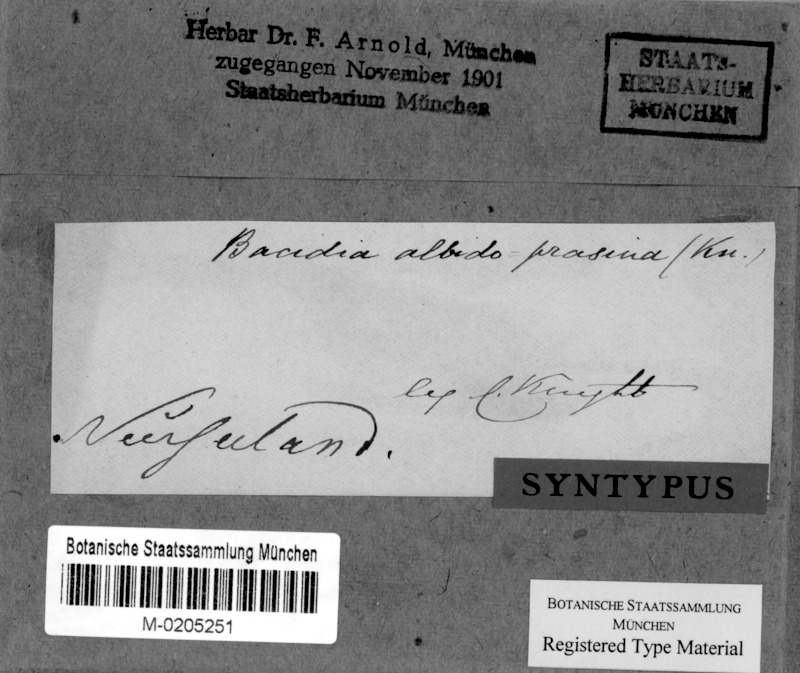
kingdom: Fungi
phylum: Ascomycota
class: Lecanoromycetes
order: Lecanorales
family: Ramalinaceae
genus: Bacidia
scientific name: Bacidia
